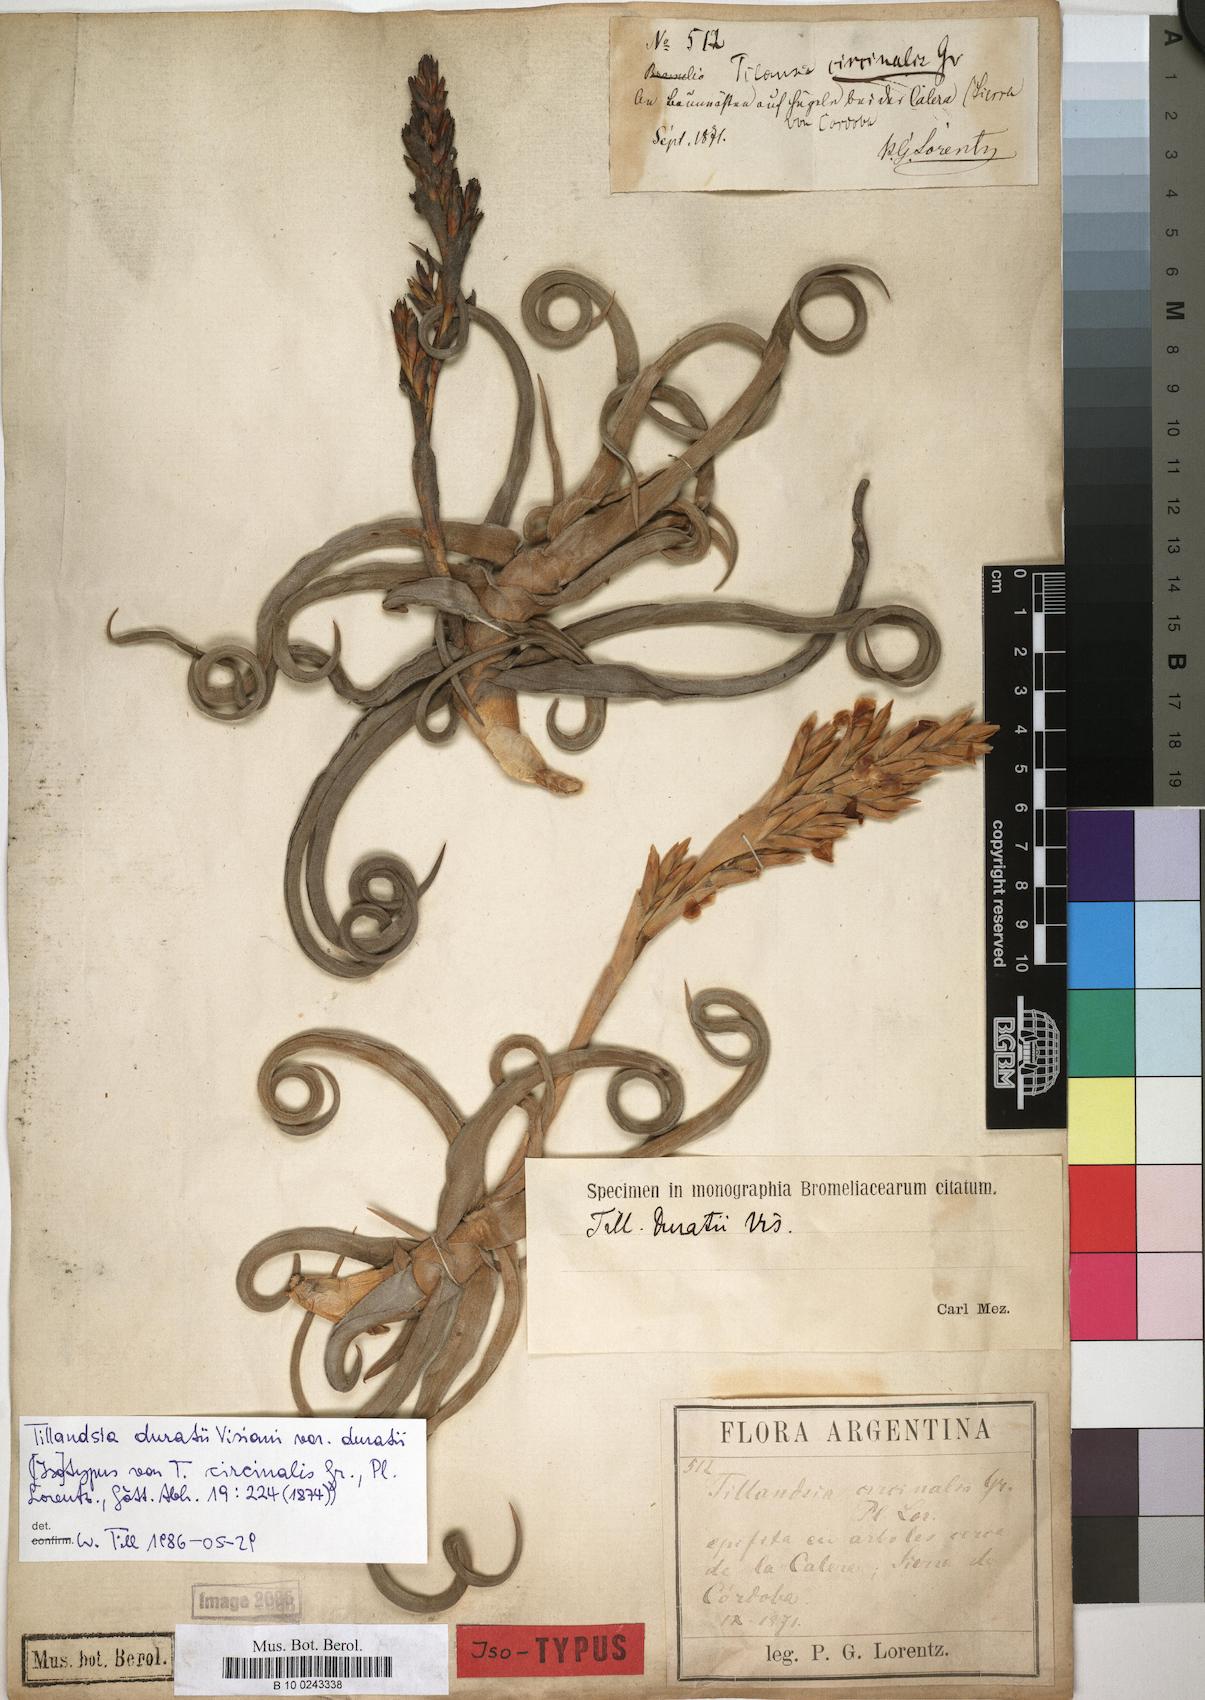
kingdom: Plantae
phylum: Tracheophyta
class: Liliopsida
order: Poales
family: Bromeliaceae
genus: Tillandsia
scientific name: Tillandsia duratii
